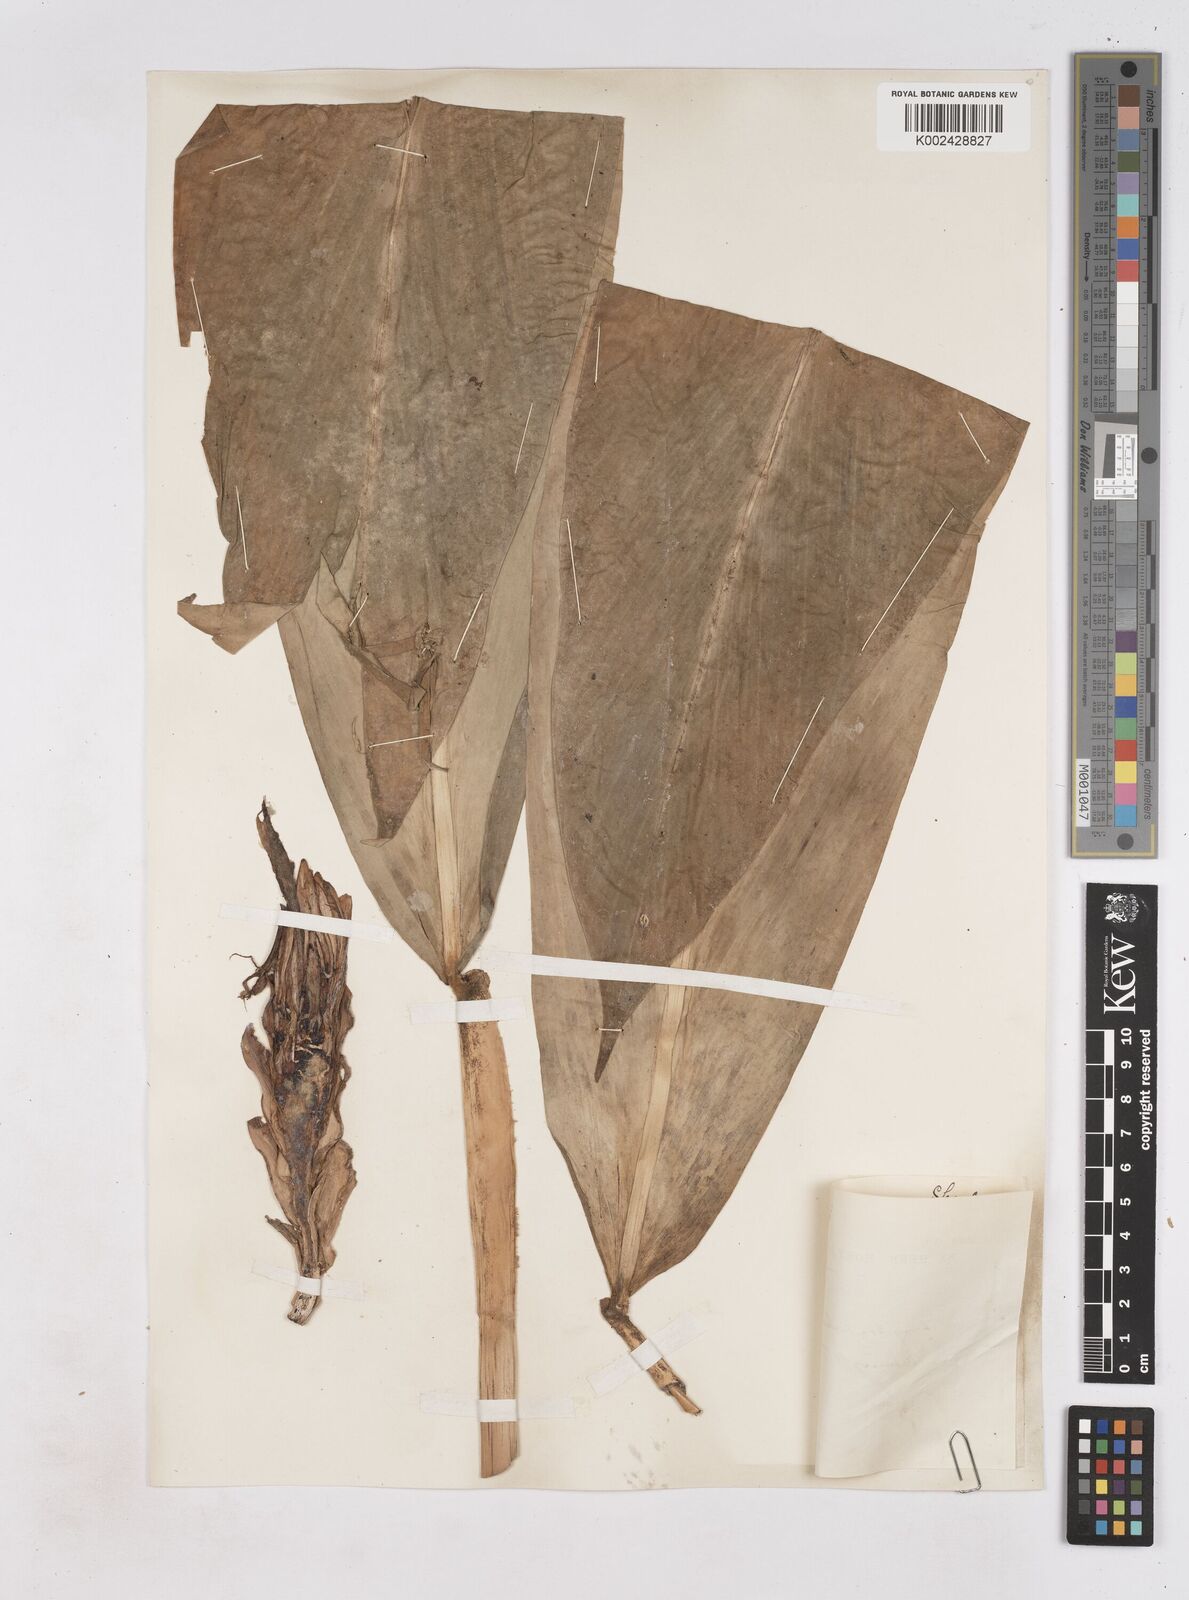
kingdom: Plantae
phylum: Tracheophyta
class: Liliopsida
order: Zingiberales
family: Zingiberaceae
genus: Zingiber
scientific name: Zingiber puberulum
